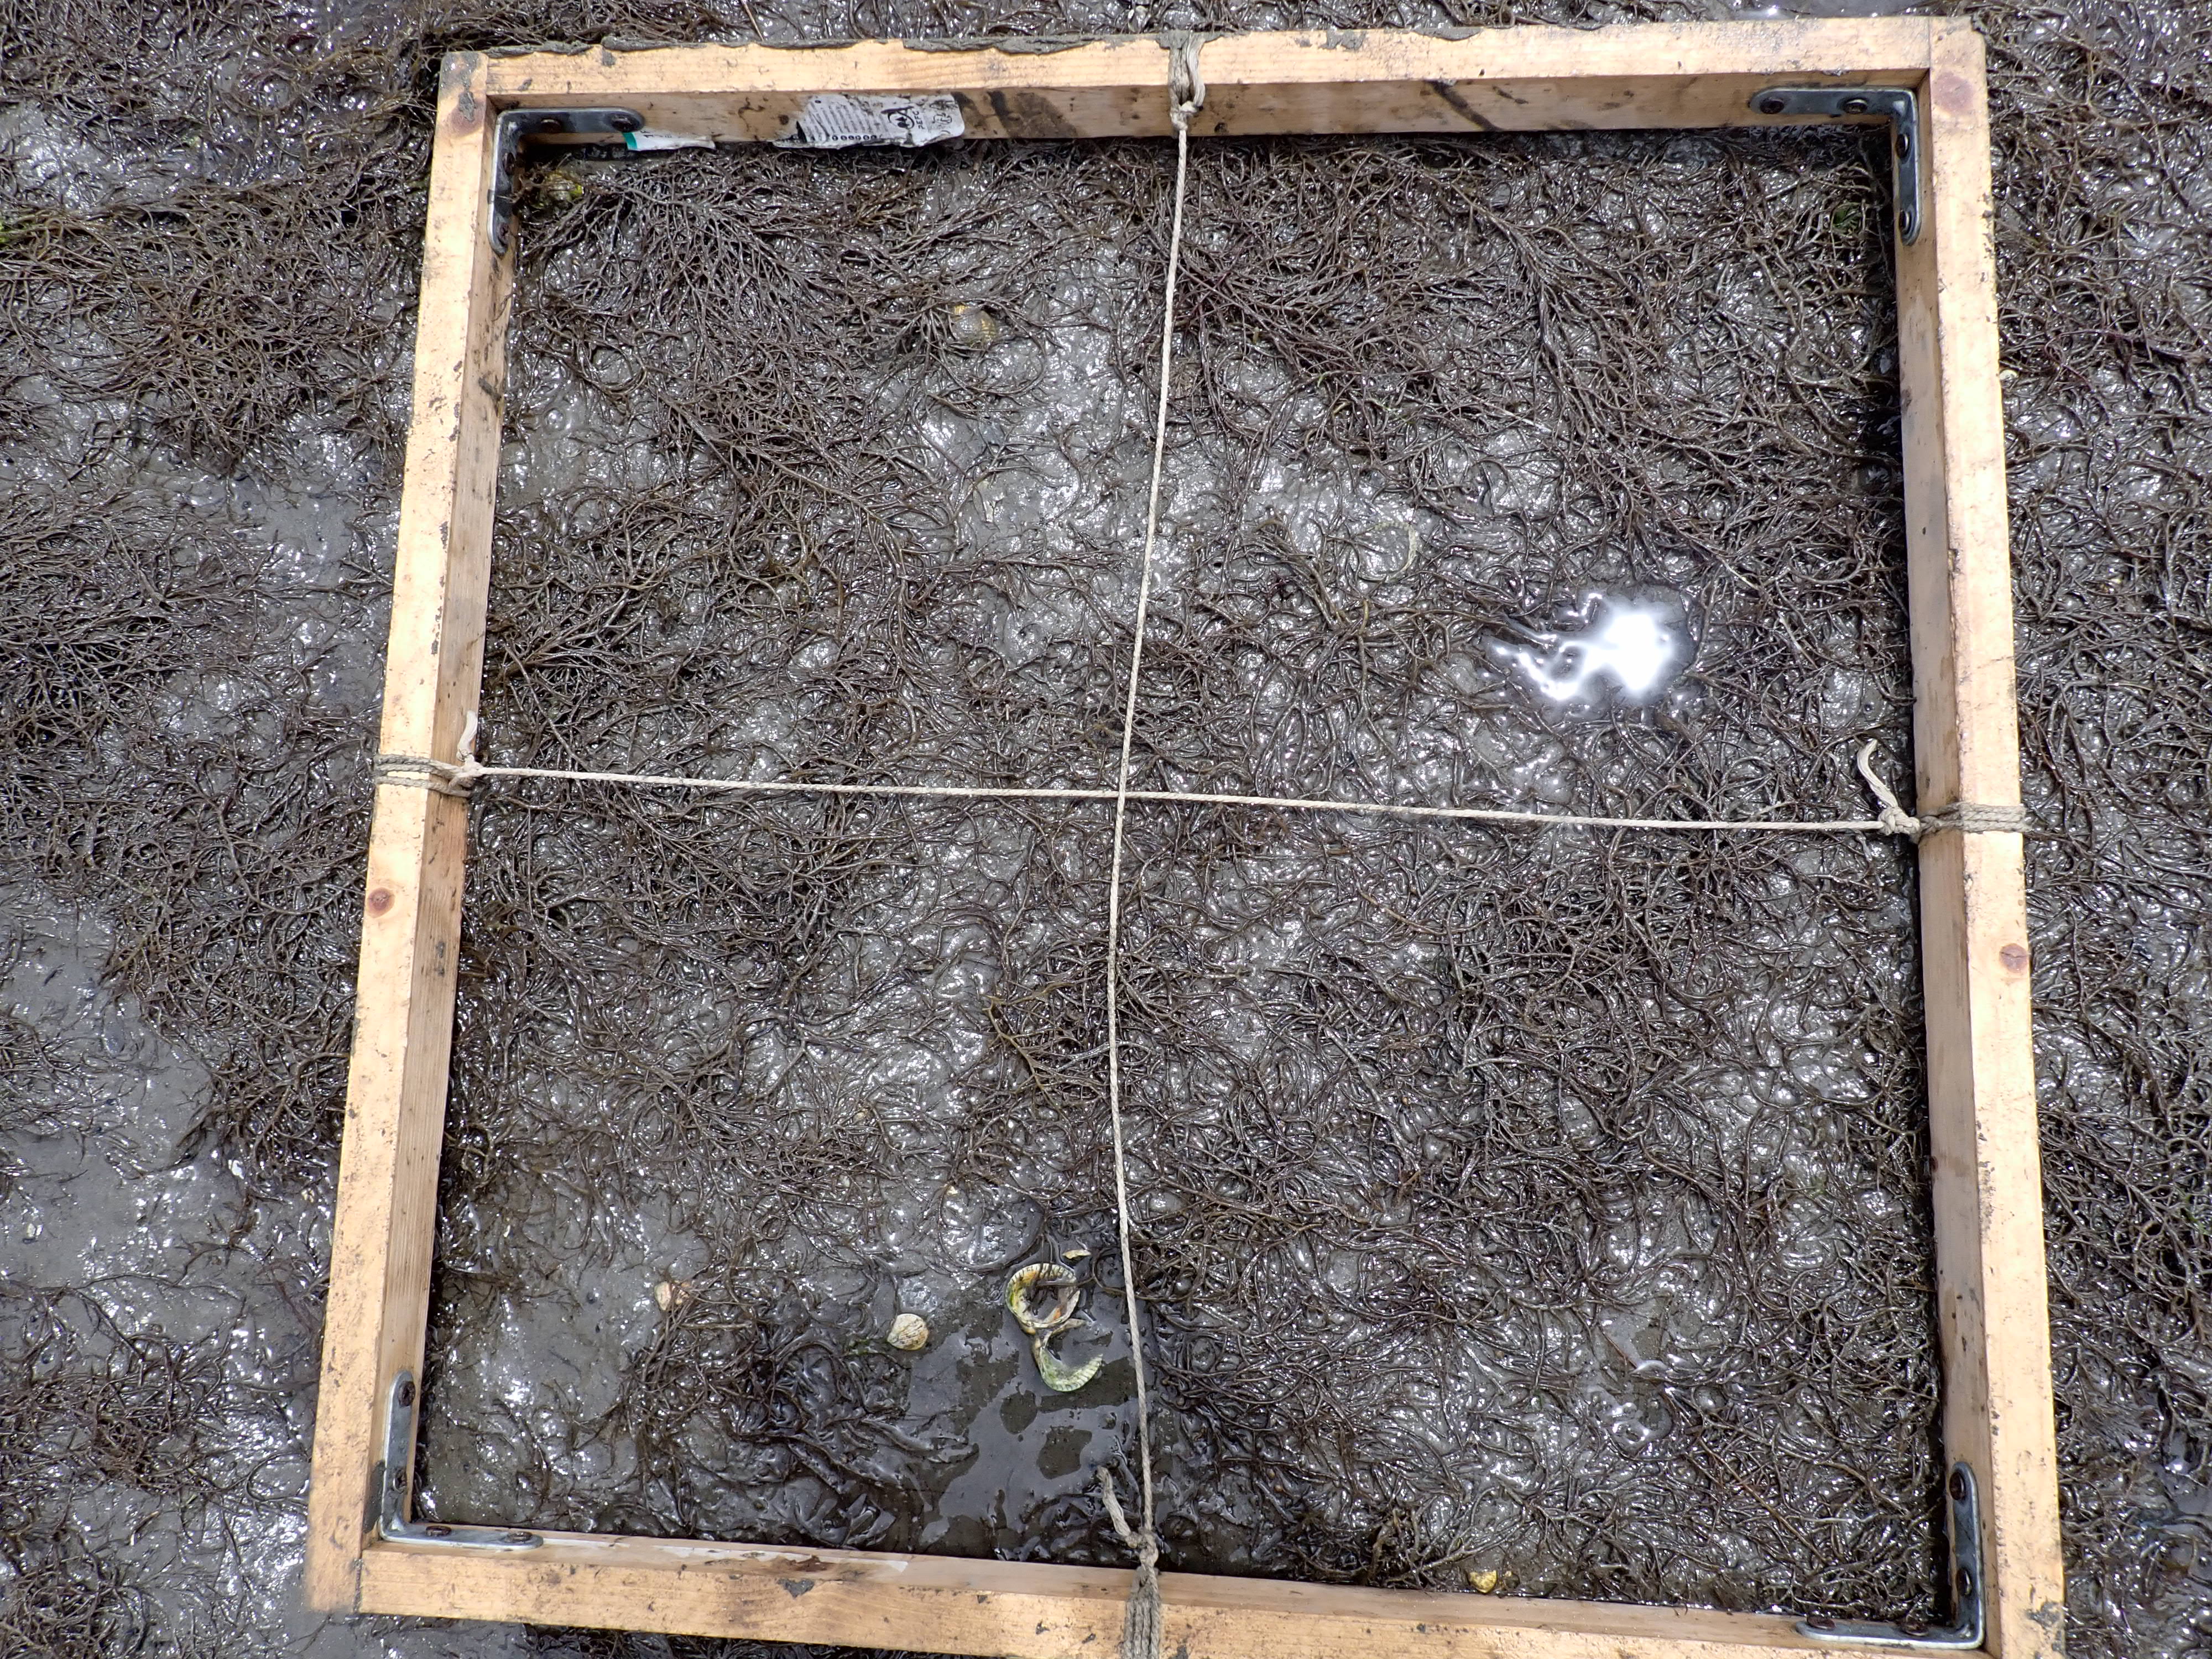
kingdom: Plantae
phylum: Rhodophyta
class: Florideophyceae
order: Gracilariales
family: Gracilariaceae
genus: Gracilaria
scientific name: Gracilaria vermiculophylla
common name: Algae
